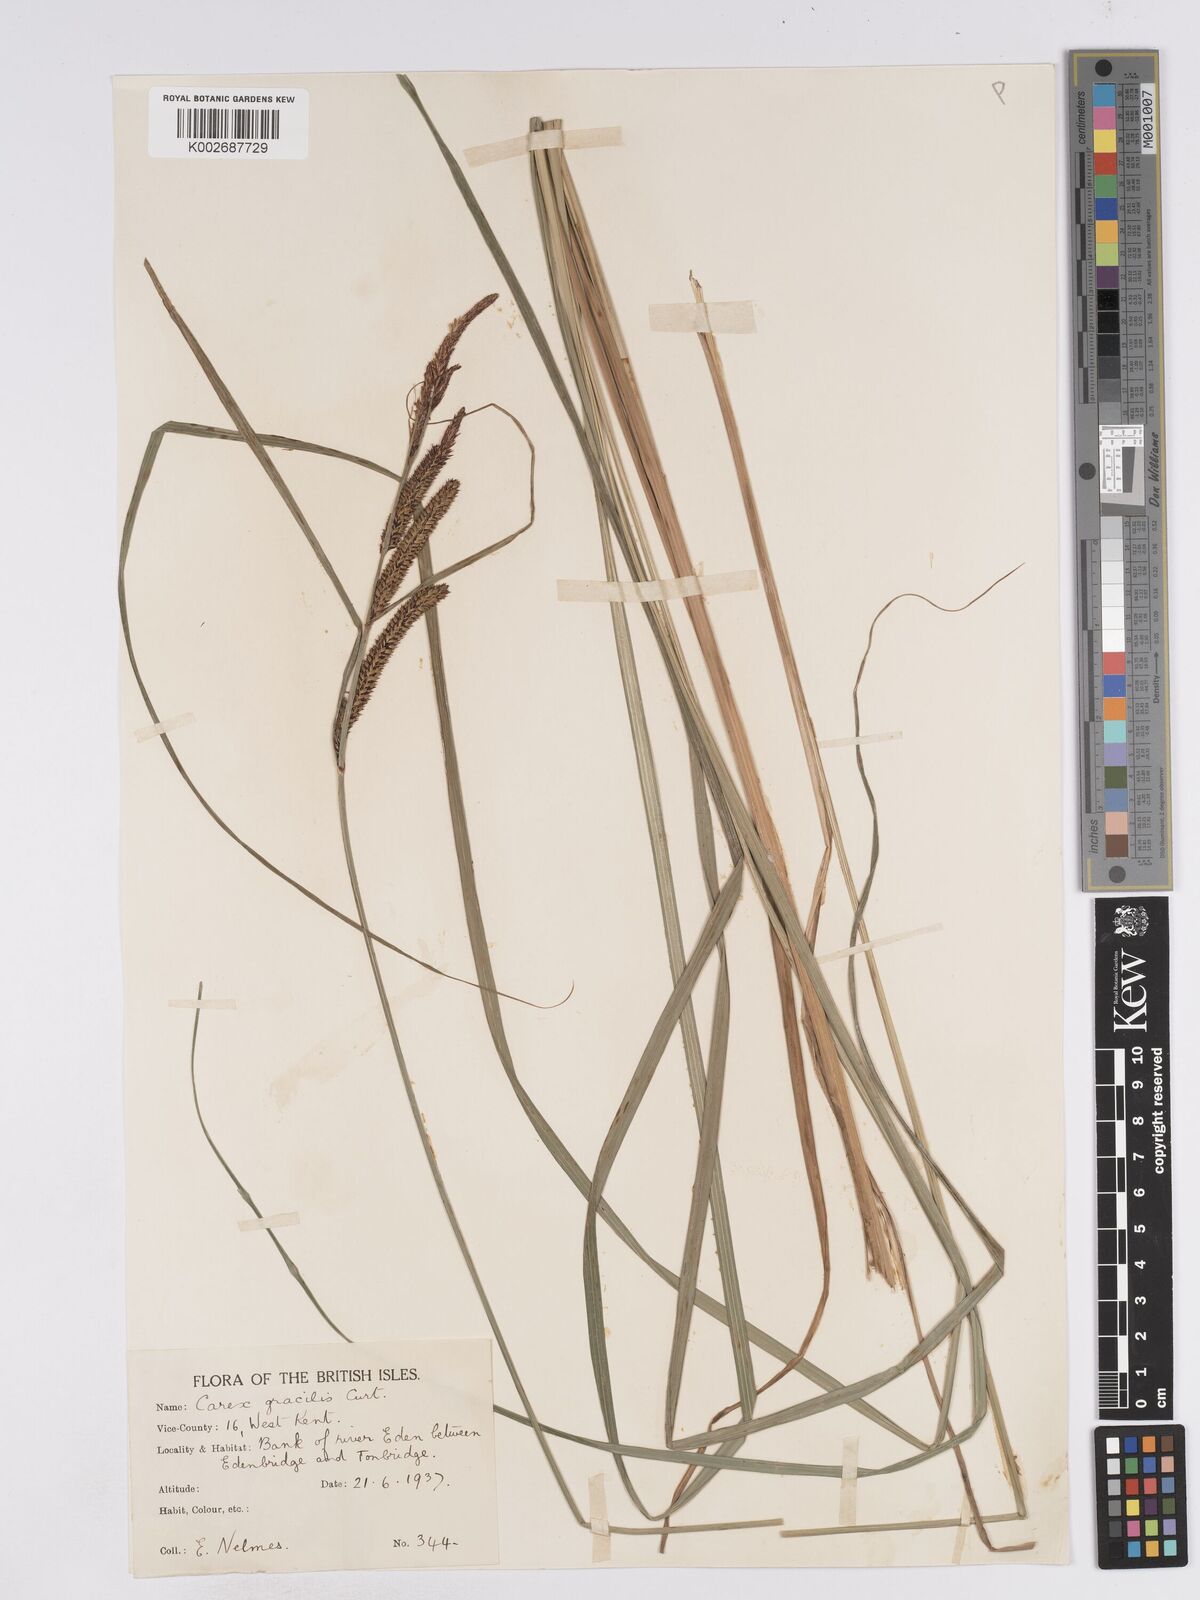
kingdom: Plantae
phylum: Tracheophyta
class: Liliopsida
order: Poales
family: Cyperaceae
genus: Carex
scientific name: Carex acuta
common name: Slender tufted-sedge
